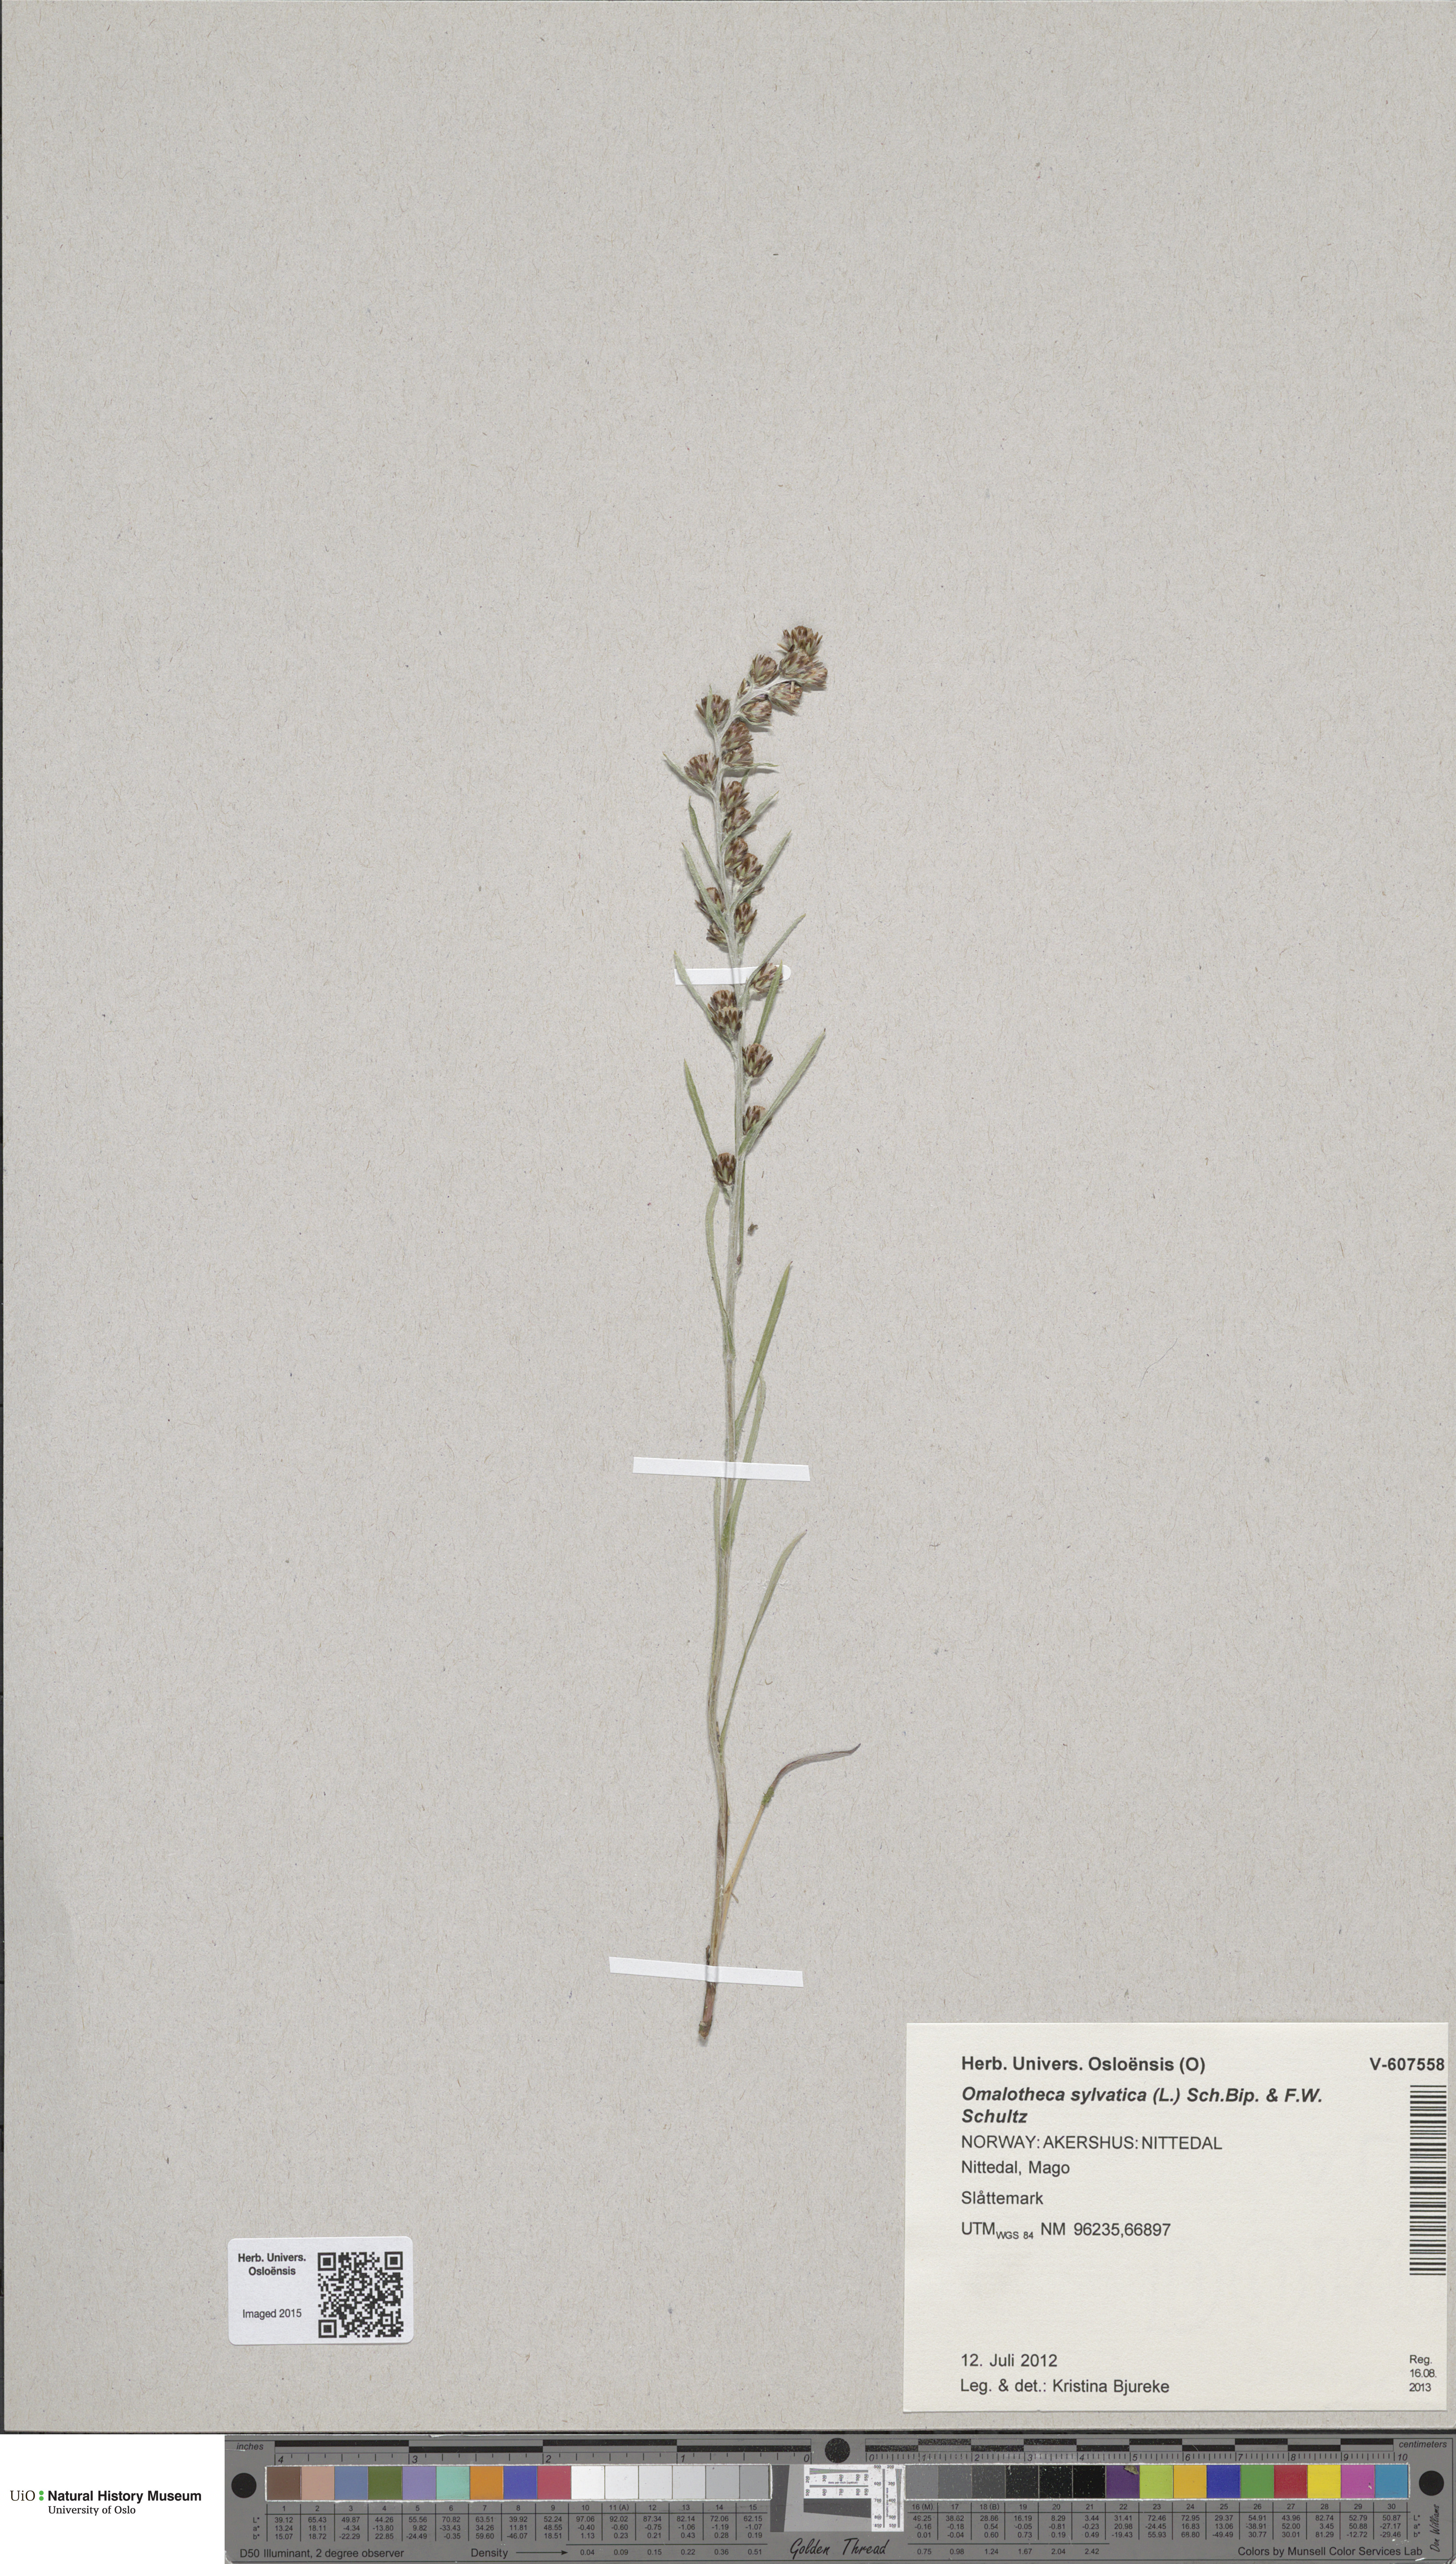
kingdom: Plantae
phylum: Tracheophyta
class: Magnoliopsida
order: Asterales
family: Asteraceae
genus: Omalotheca
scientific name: Omalotheca sylvatica
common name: Heath cudweed
